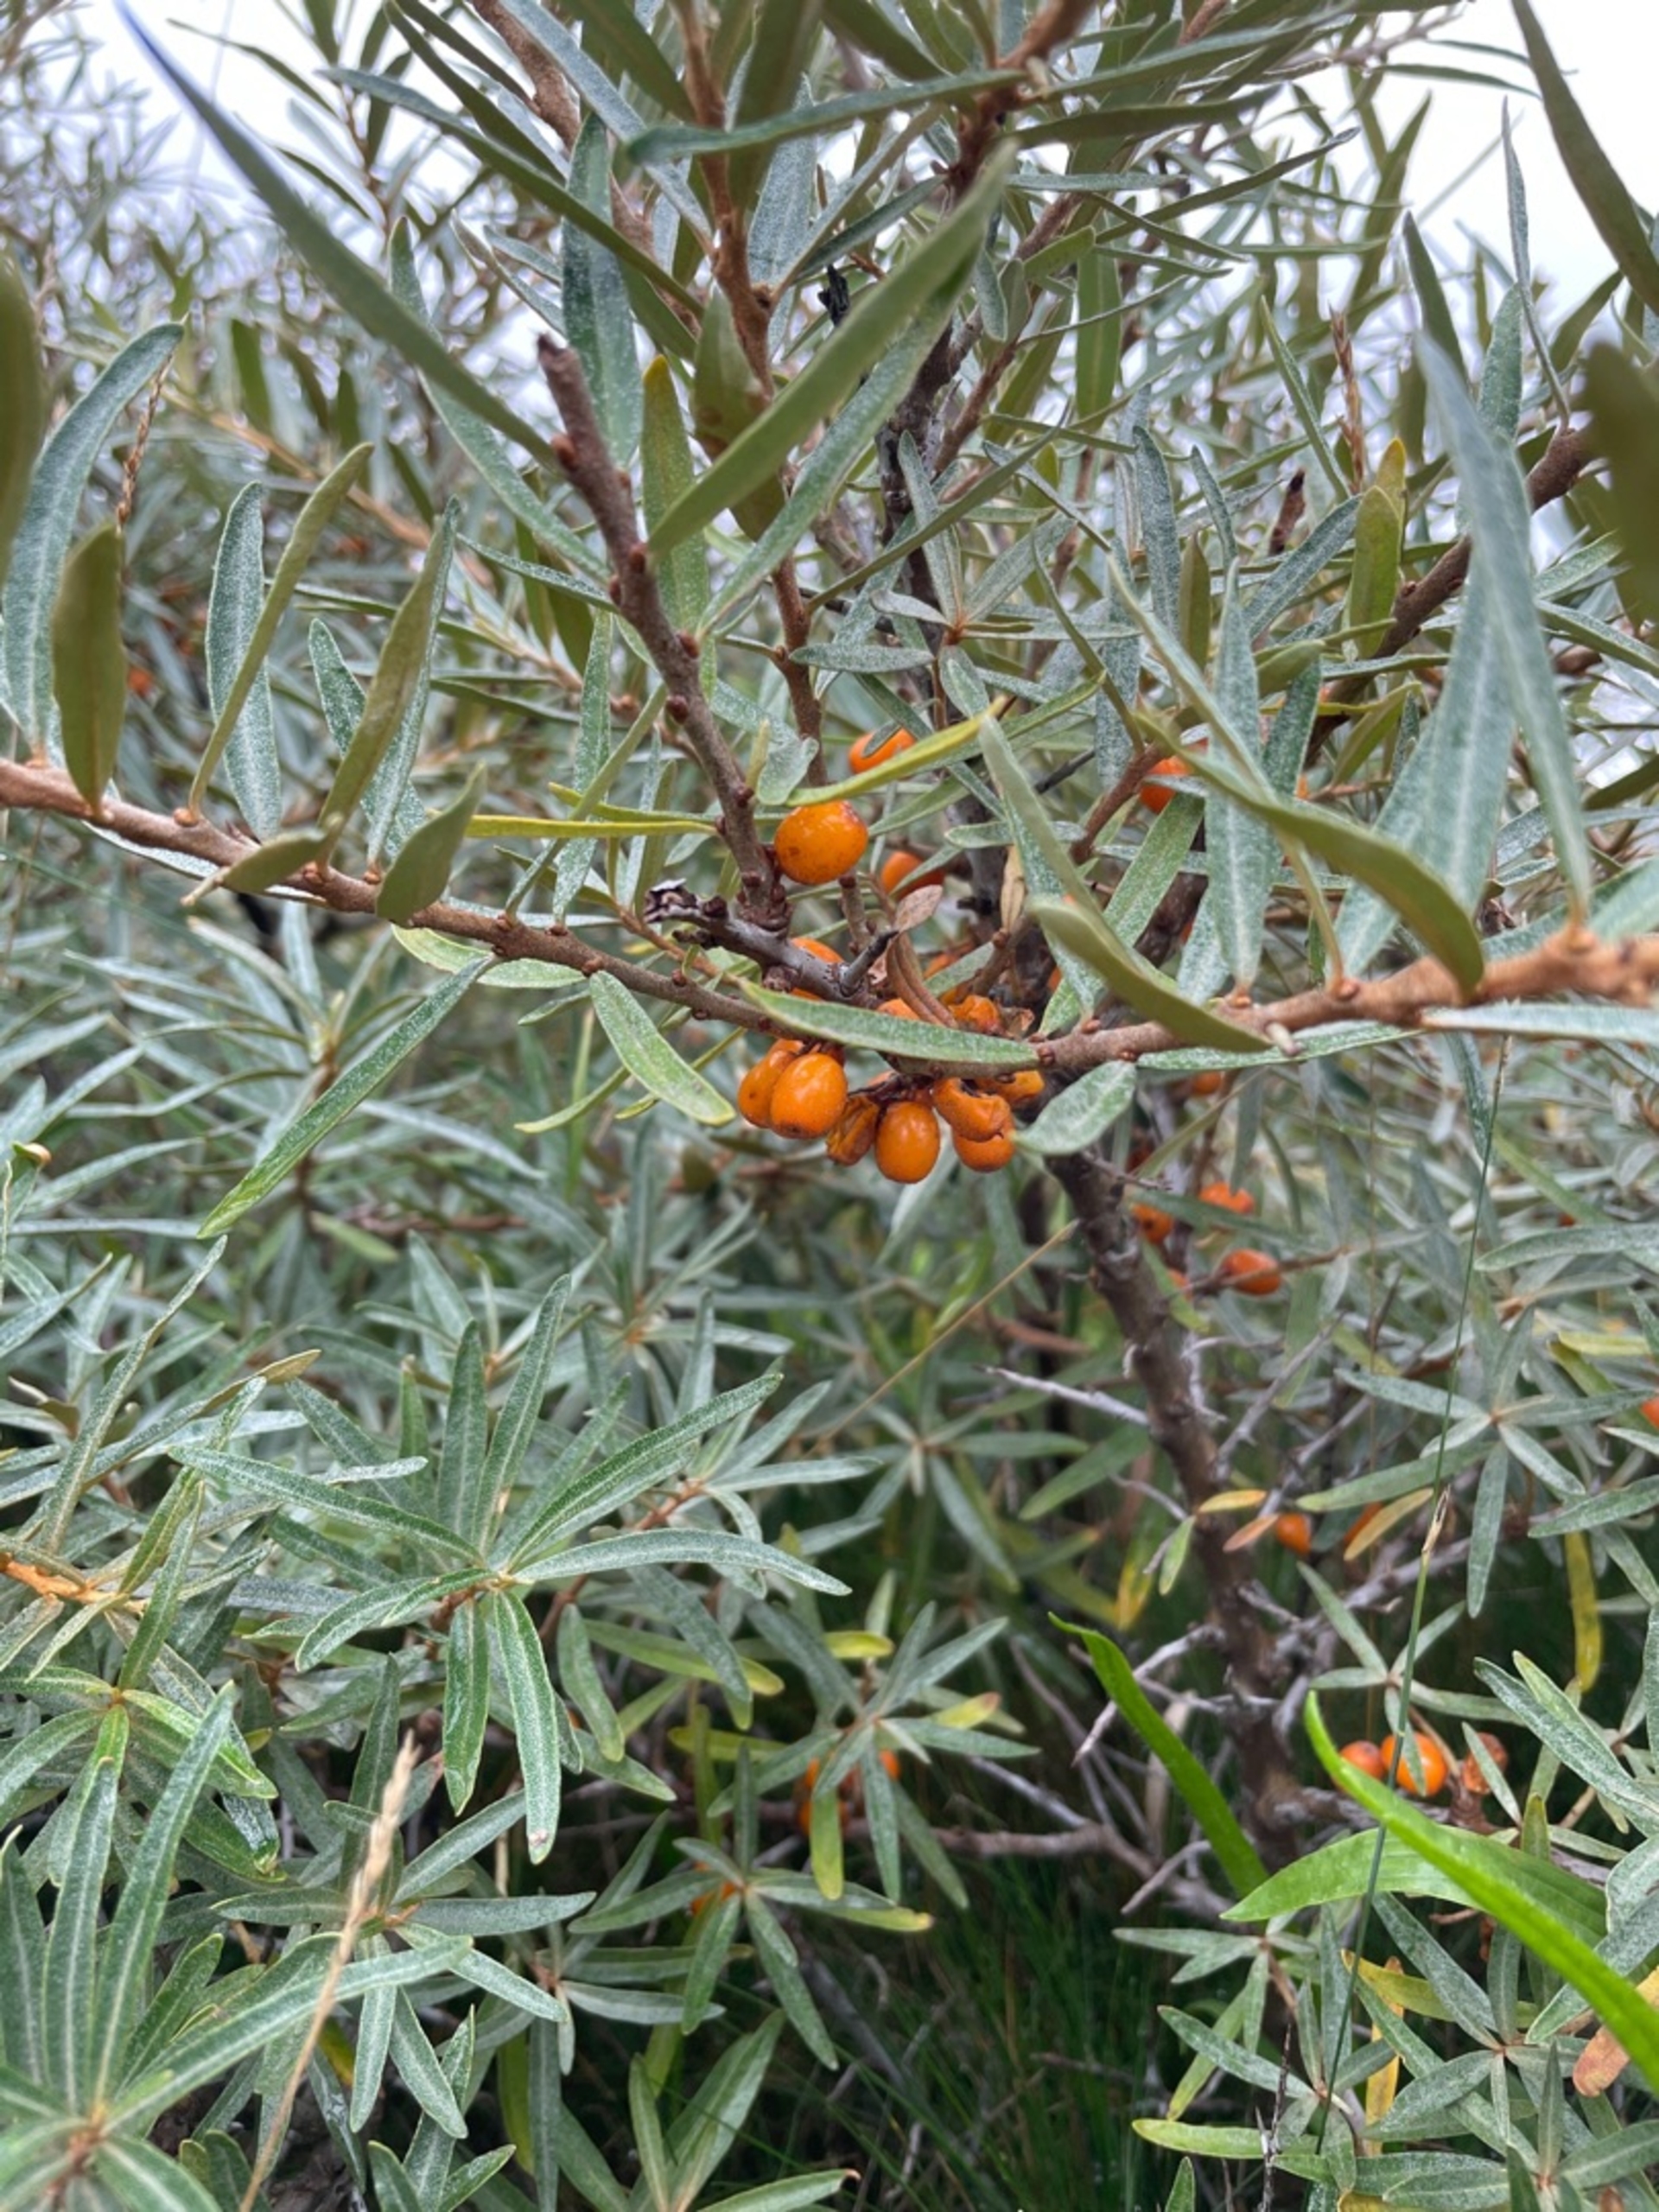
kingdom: Plantae
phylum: Tracheophyta
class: Magnoliopsida
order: Rosales
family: Elaeagnaceae
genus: Hippophae
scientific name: Hippophae rhamnoides
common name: Havtorn
